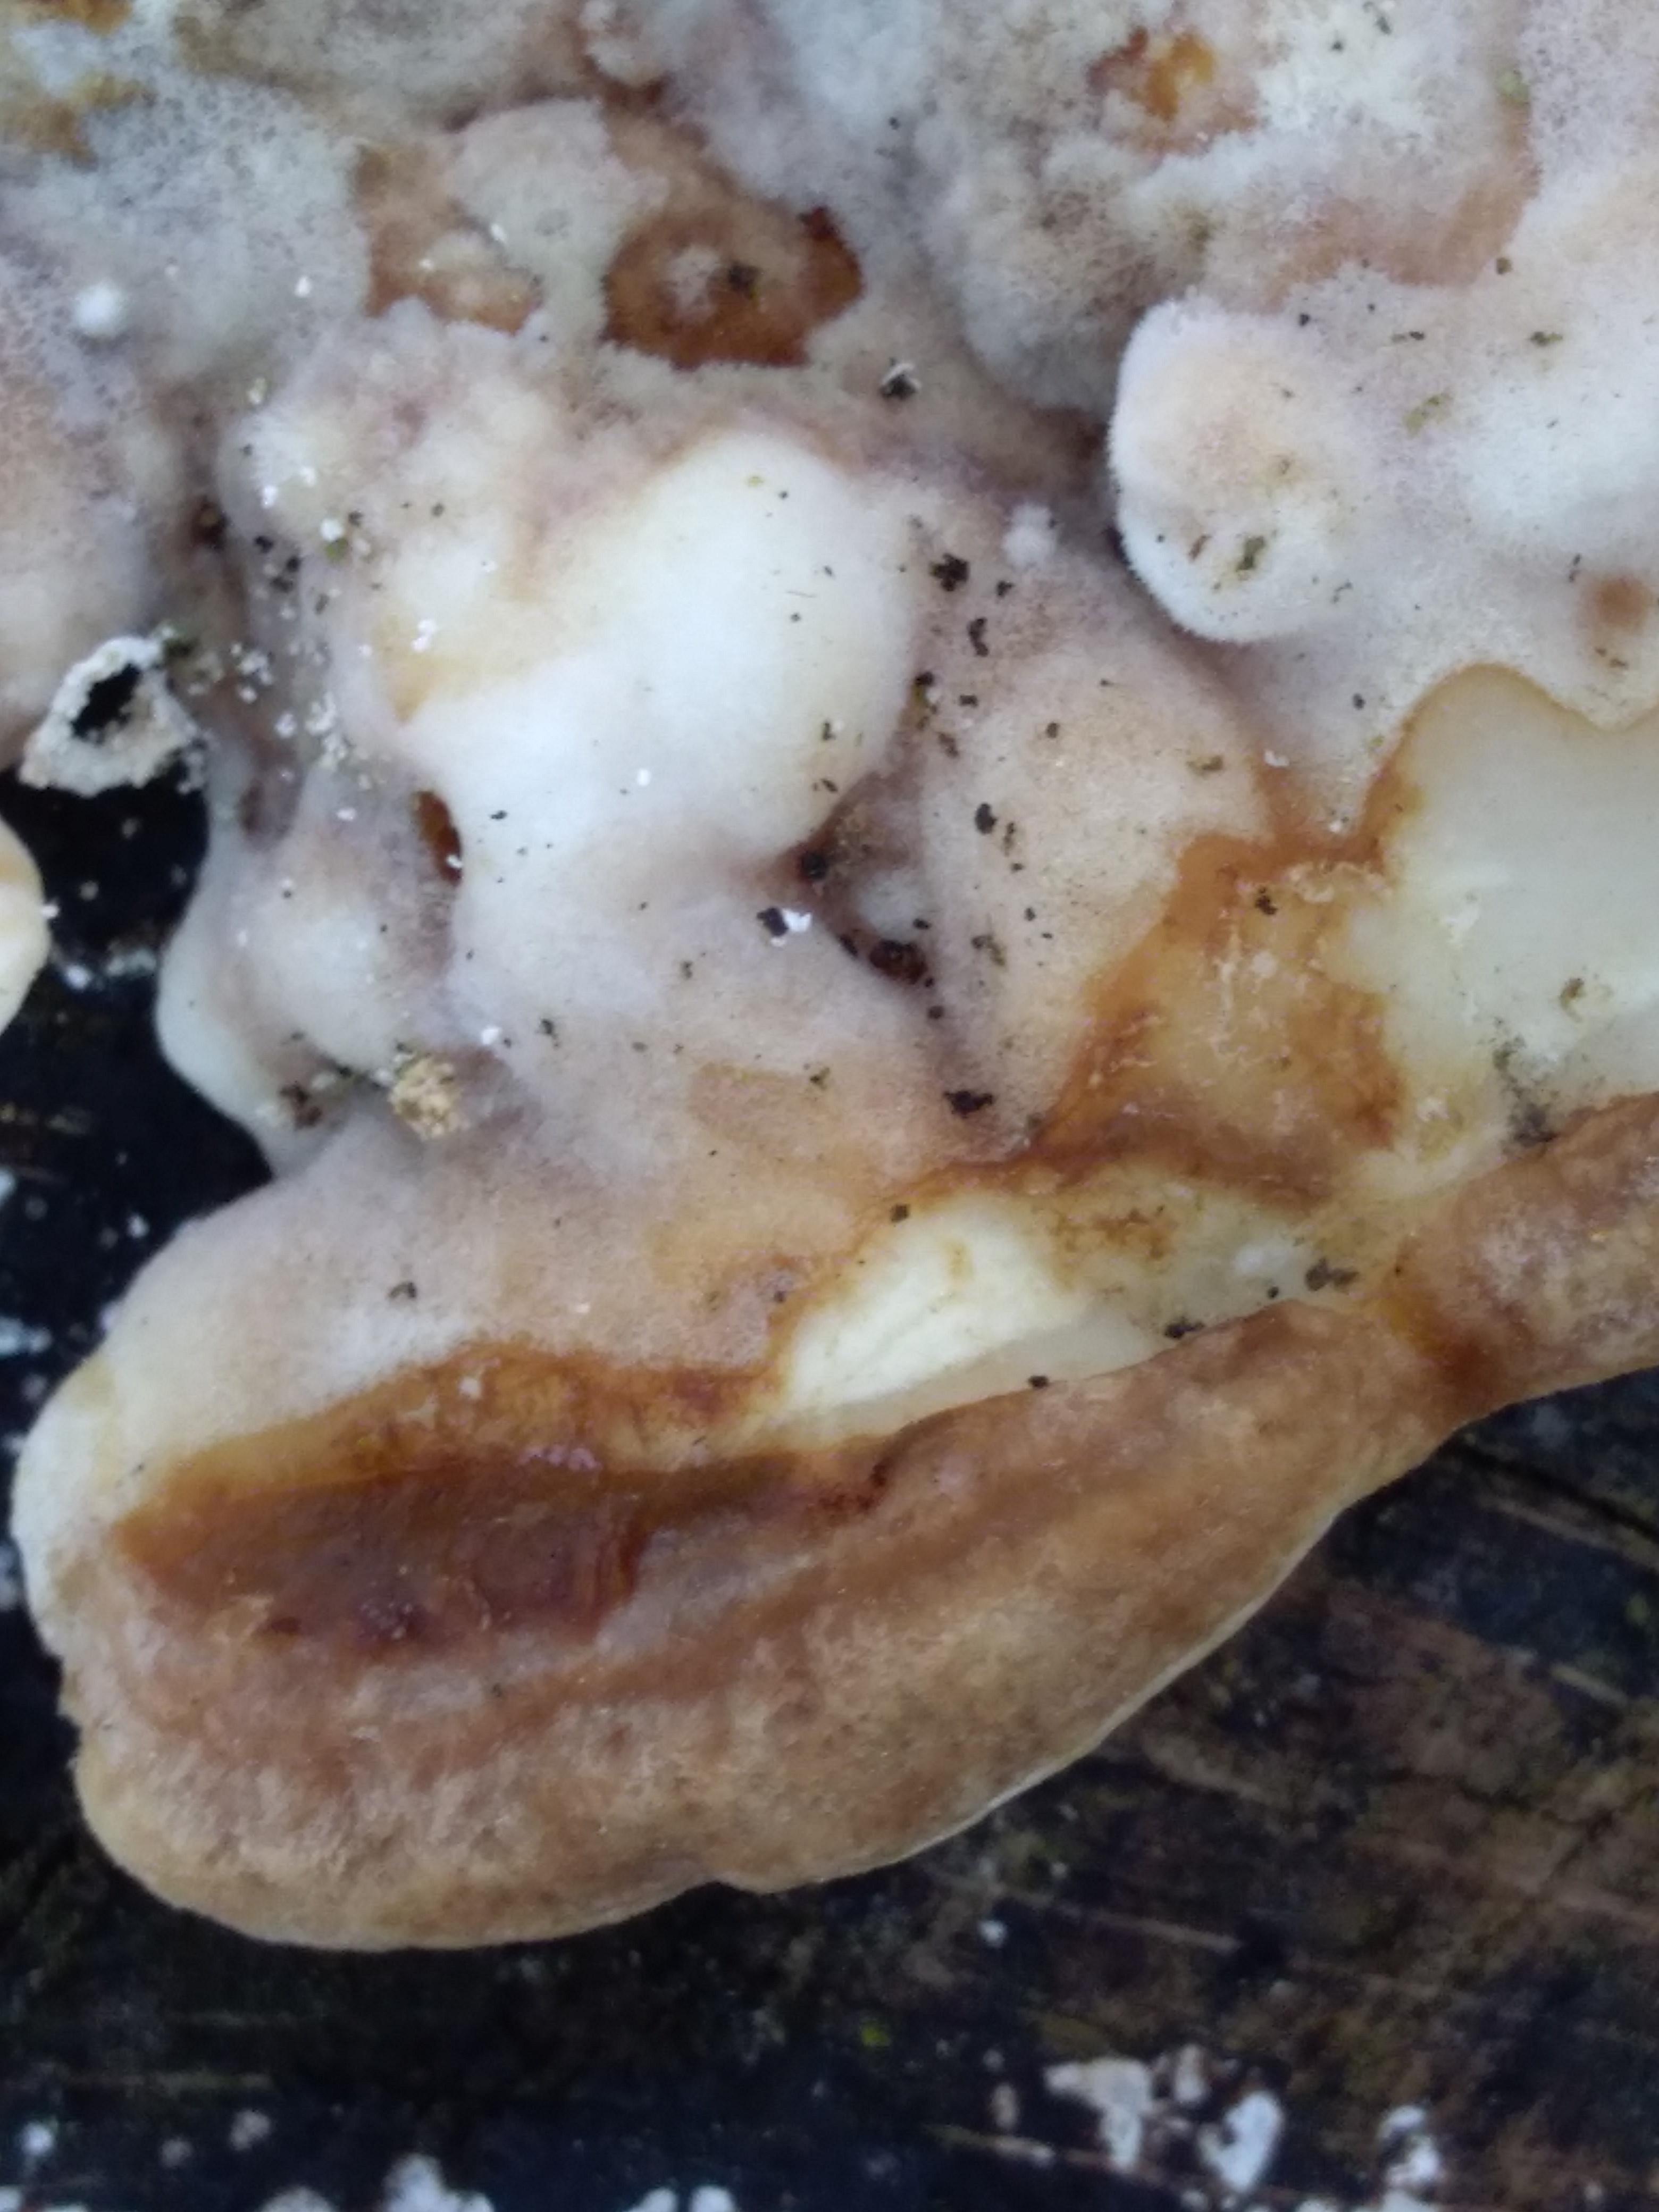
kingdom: Fungi
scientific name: Fungi
